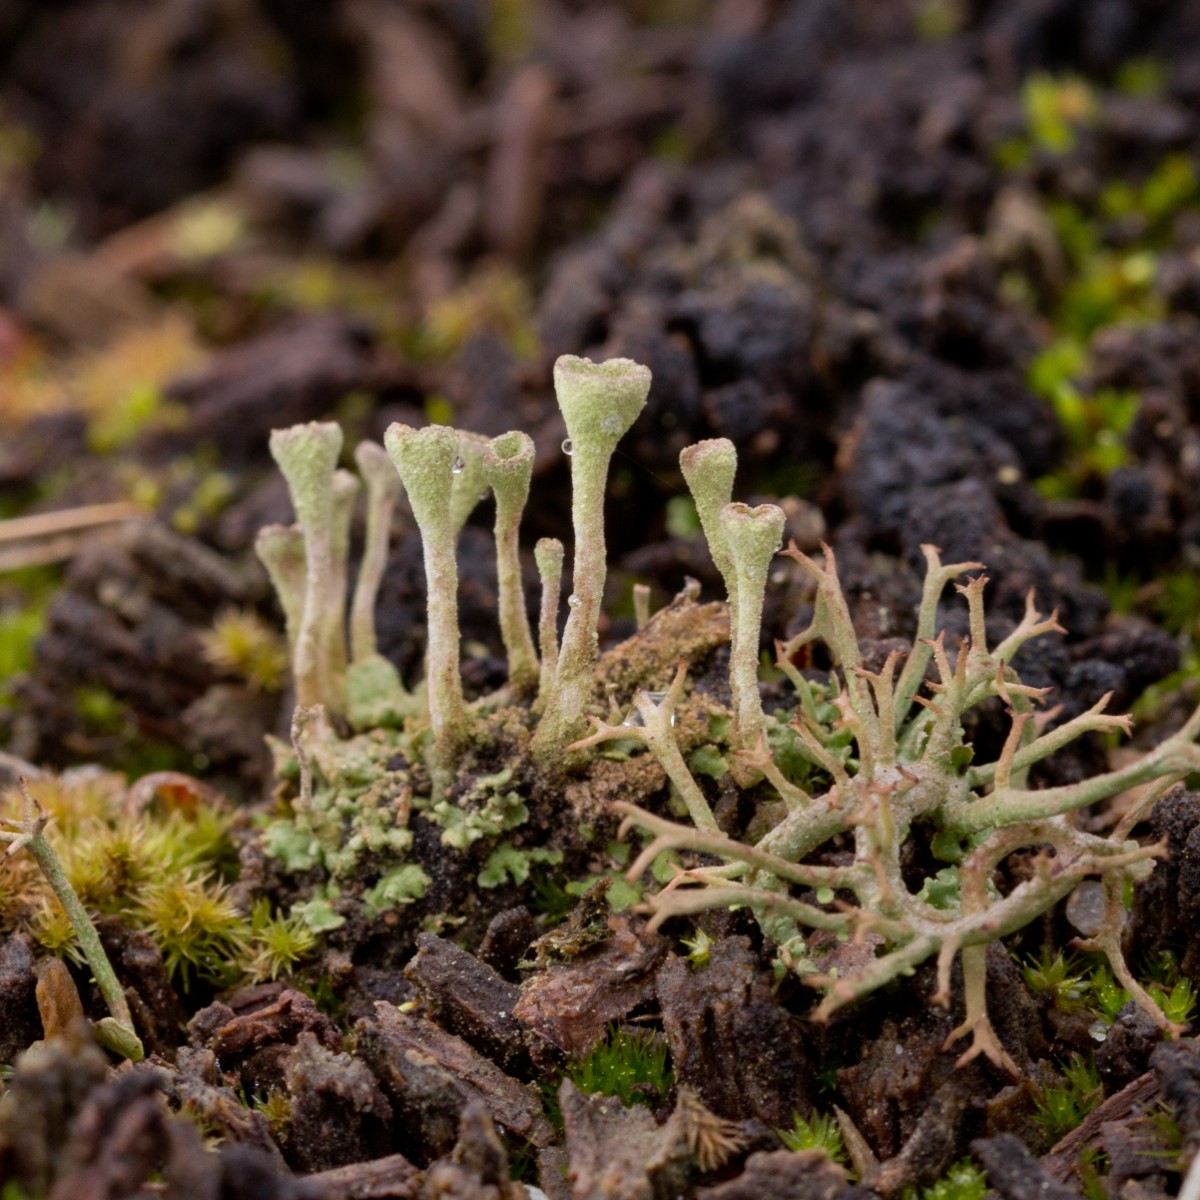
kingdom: Fungi
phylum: Ascomycota
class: Lecanoromycetes
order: Lecanorales
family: Cladoniaceae
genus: Cladonia
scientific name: Cladonia
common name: brungrøn bægerlav
